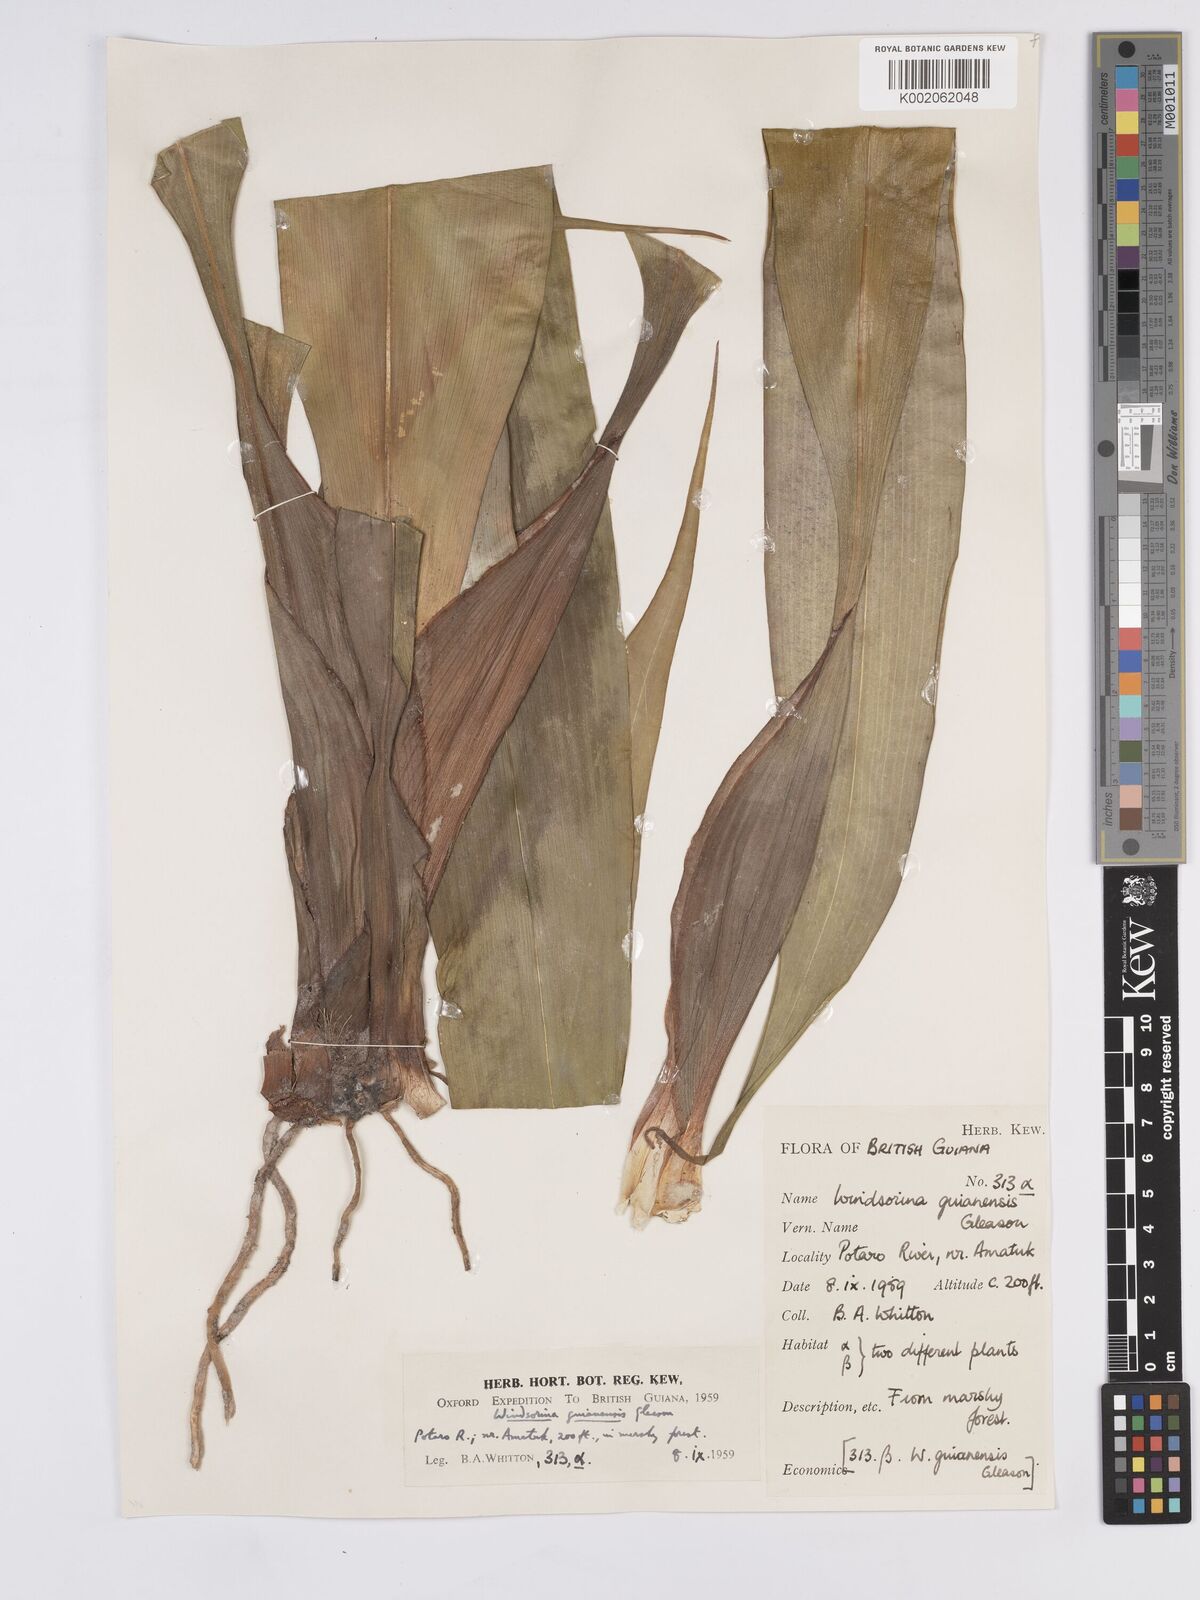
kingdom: Plantae
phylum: Tracheophyta
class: Liliopsida
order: Poales
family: Rapateaceae
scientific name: Rapateaceae
